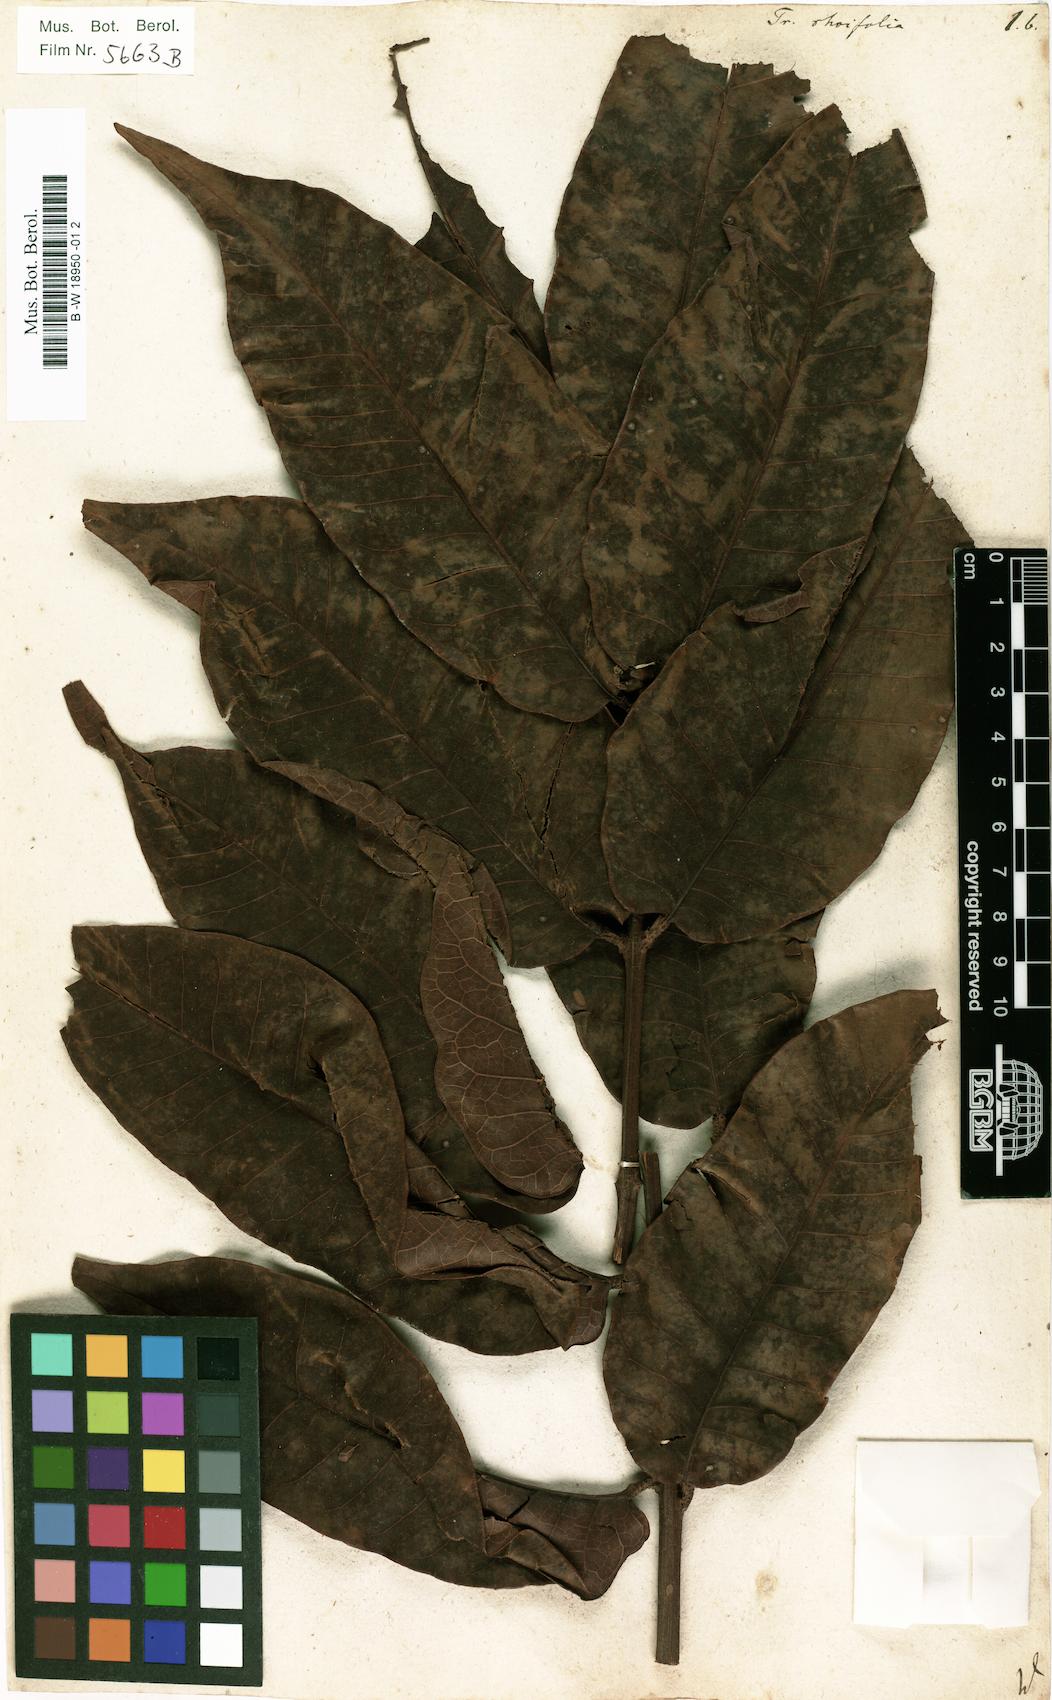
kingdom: Plantae
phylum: Tracheophyta
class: Magnoliopsida
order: Sapindales
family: Burseraceae
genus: Trattinnickia
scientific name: Trattinnickia rhoifolia
